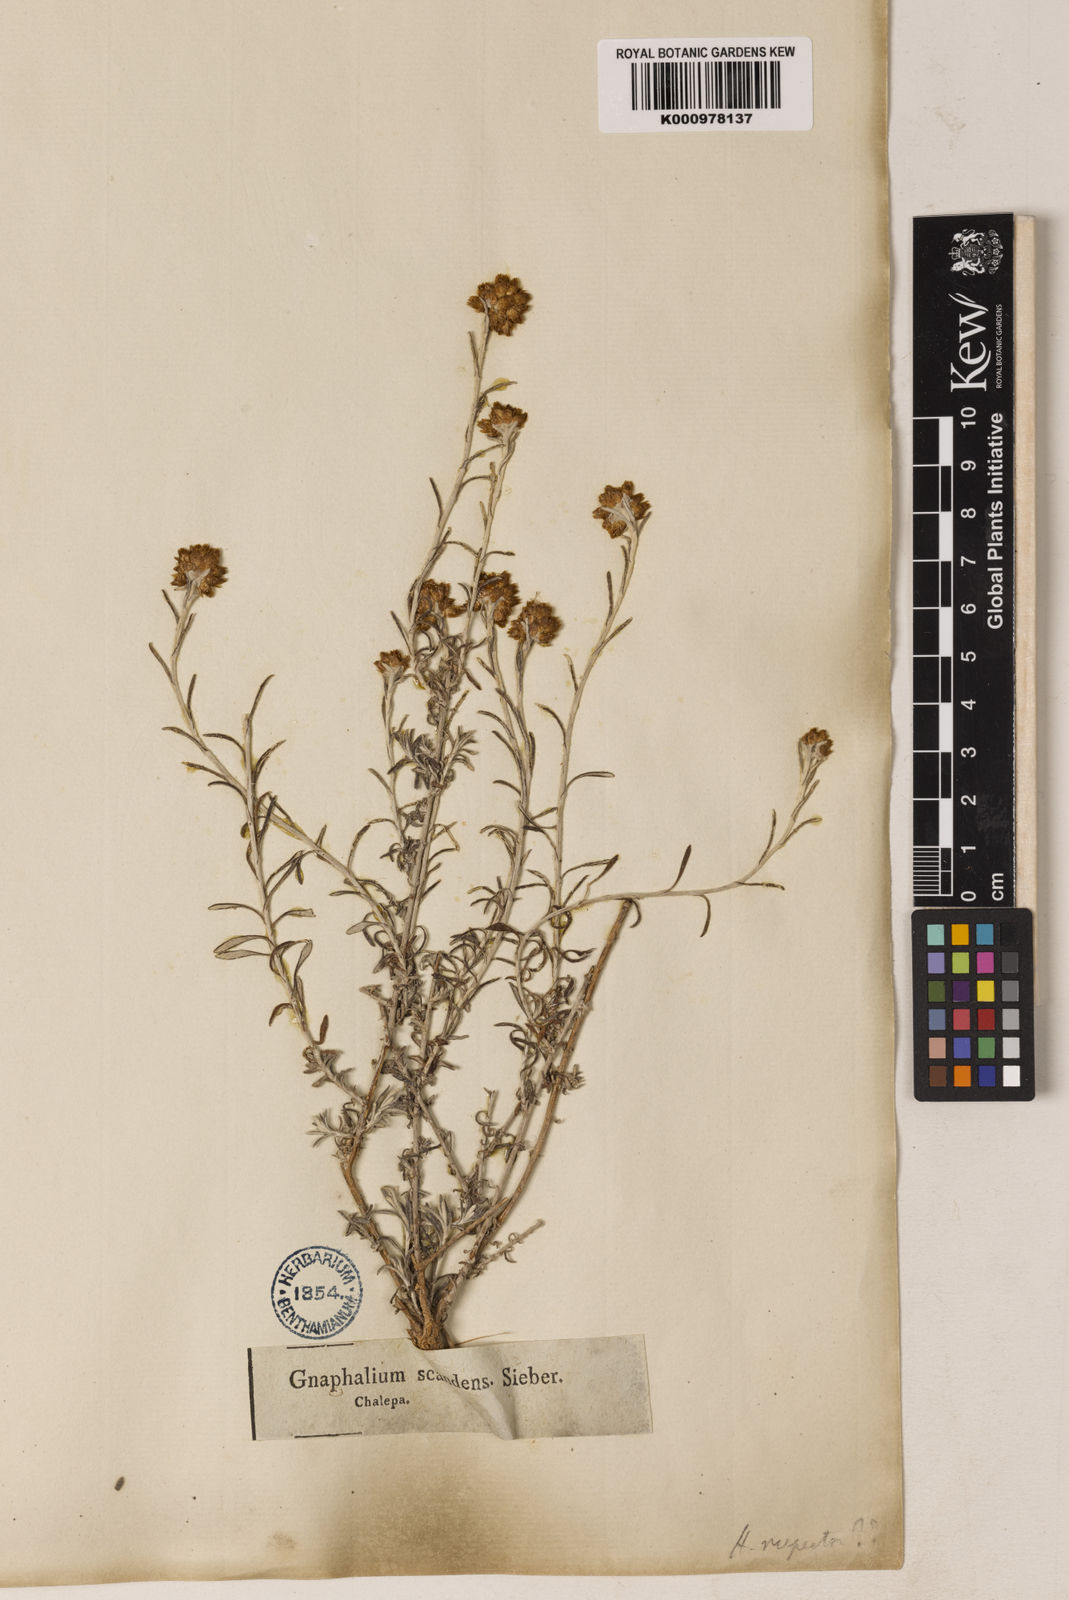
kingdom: Plantae
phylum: Tracheophyta
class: Magnoliopsida
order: Asterales
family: Asteraceae
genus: Helichrysum
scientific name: Helichrysum stoechas
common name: Goldilocks
